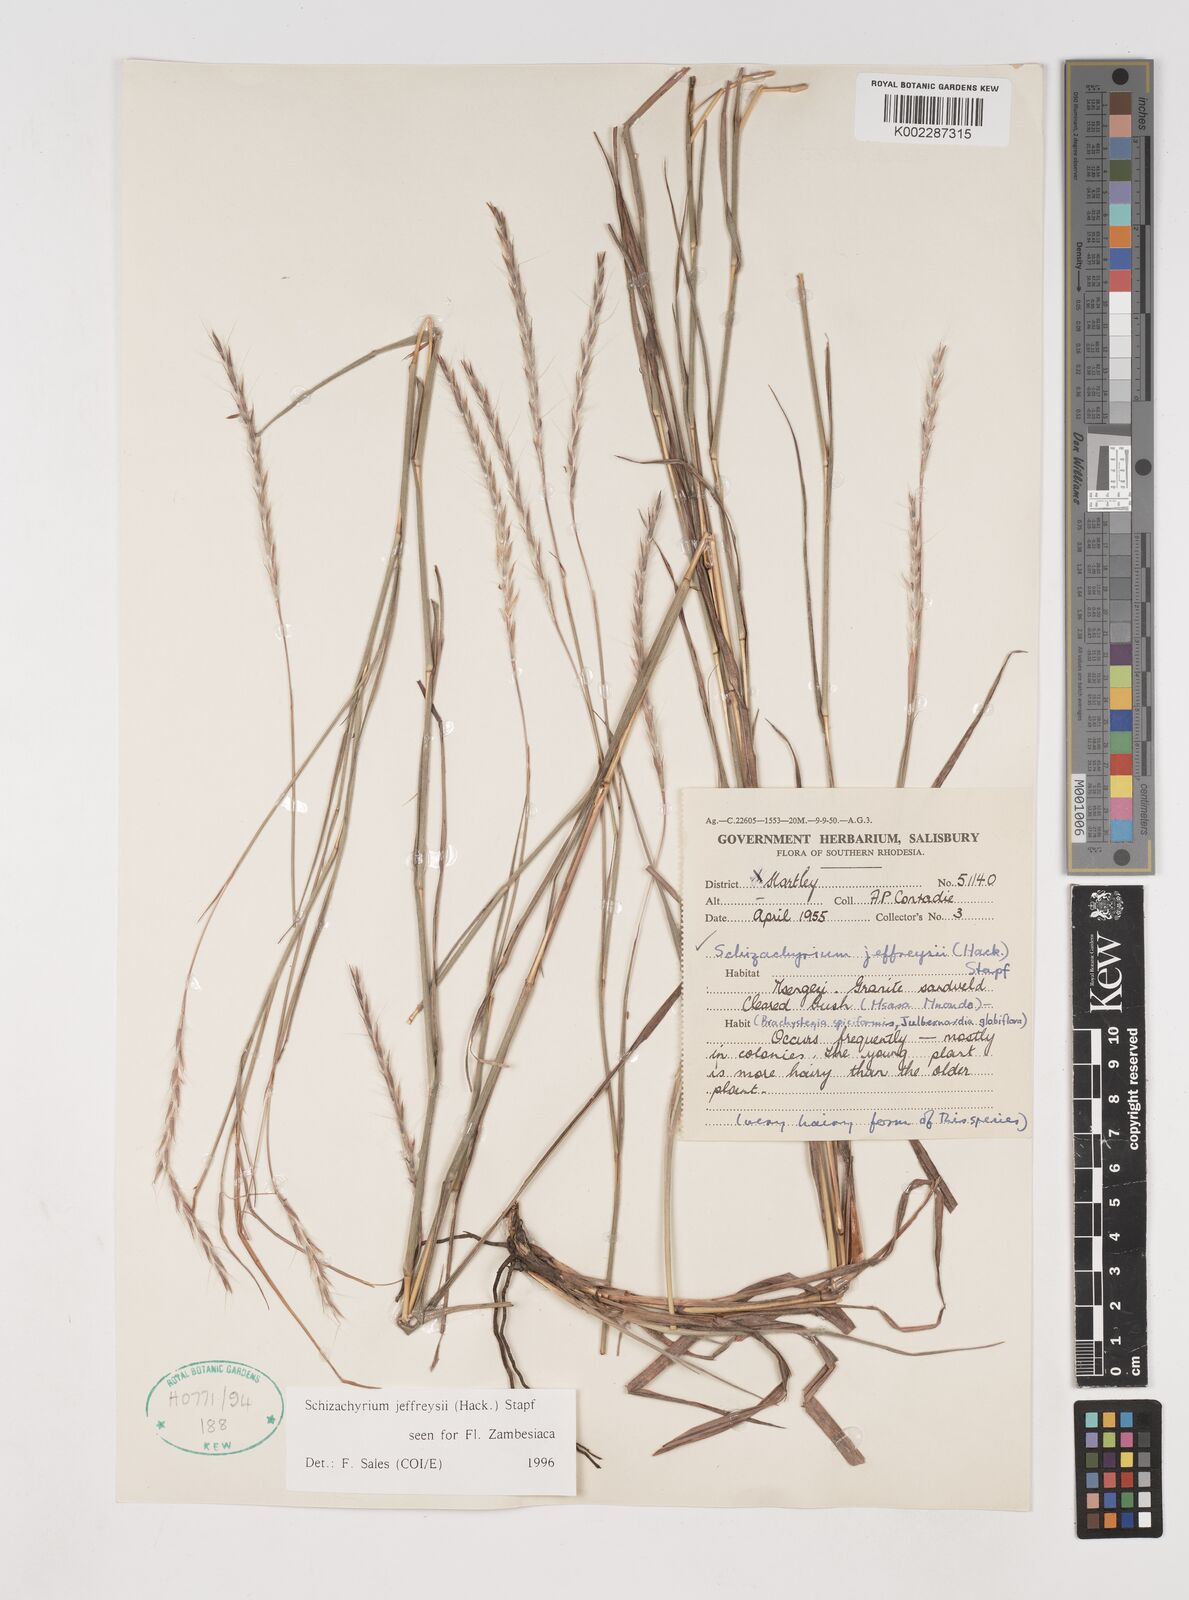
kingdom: Plantae
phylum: Tracheophyta
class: Liliopsida
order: Poales
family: Poaceae
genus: Schizachyrium
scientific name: Schizachyrium jeffreysii
